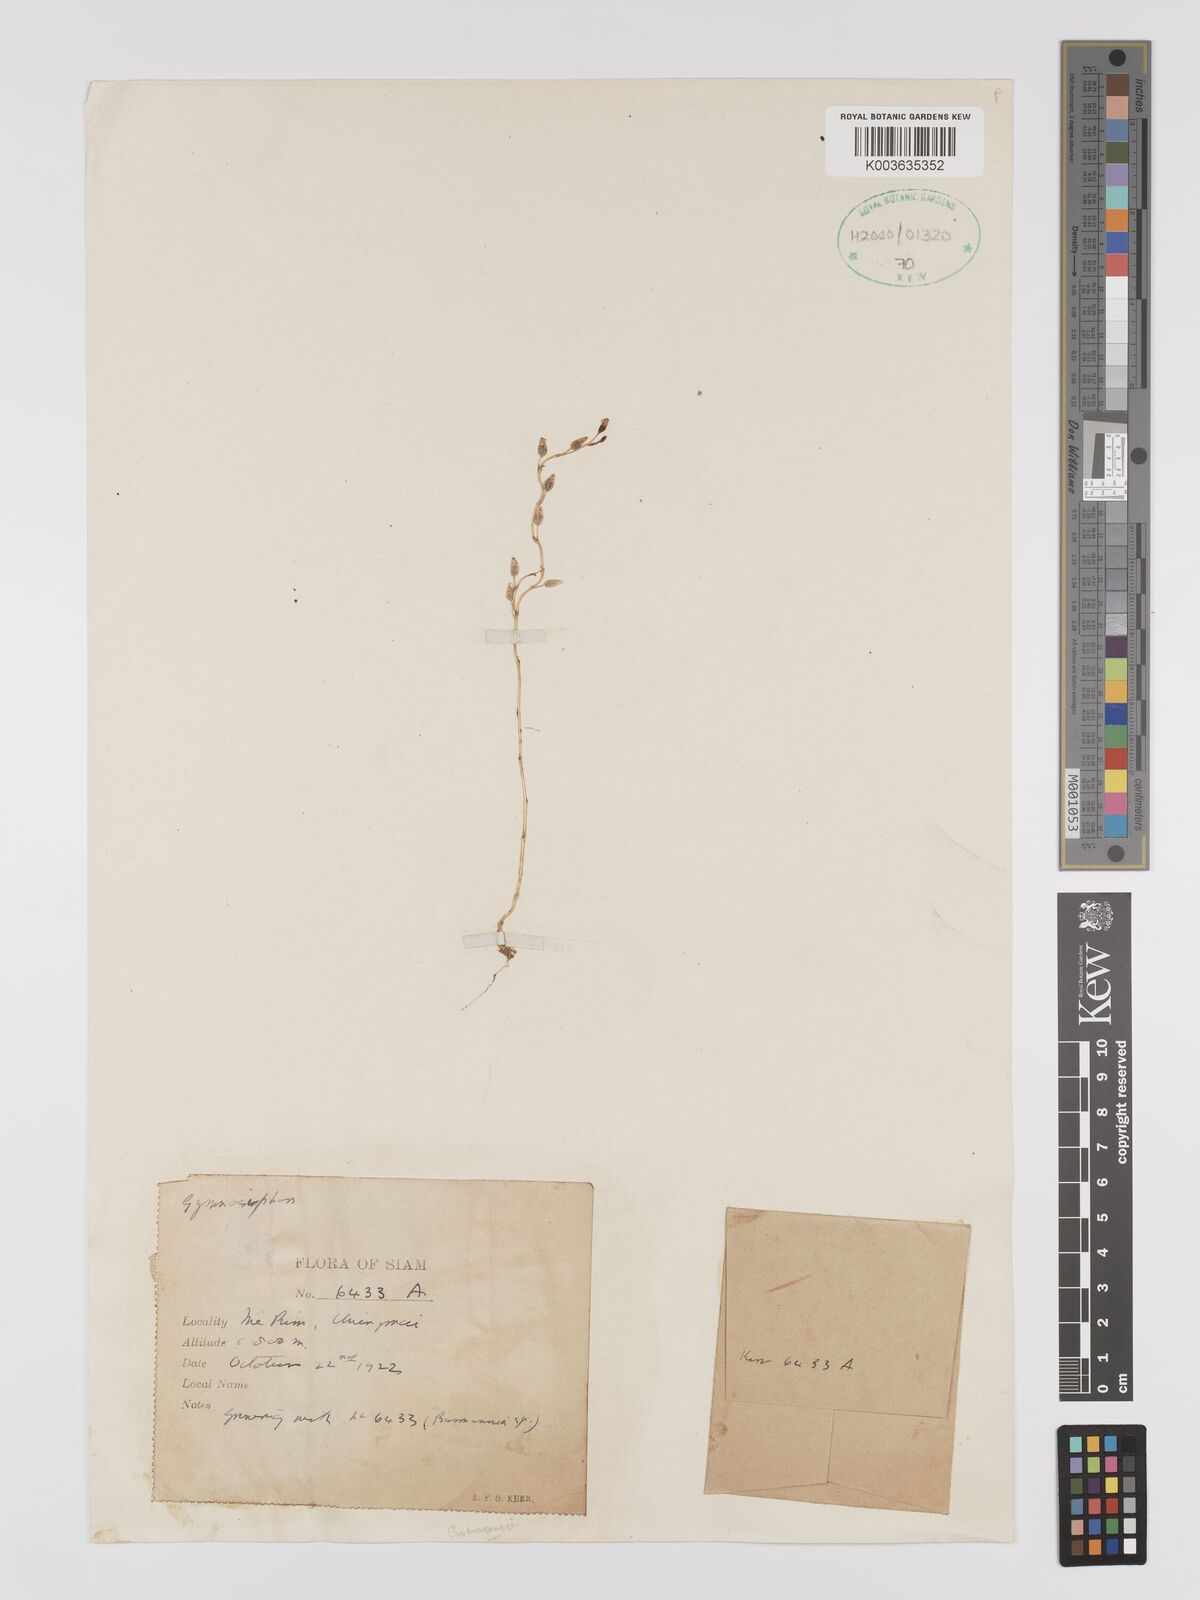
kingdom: Plantae
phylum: Tracheophyta
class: Liliopsida
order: Dioscoreales
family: Burmanniaceae
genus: Gymnosiphon
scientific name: Gymnosiphon
